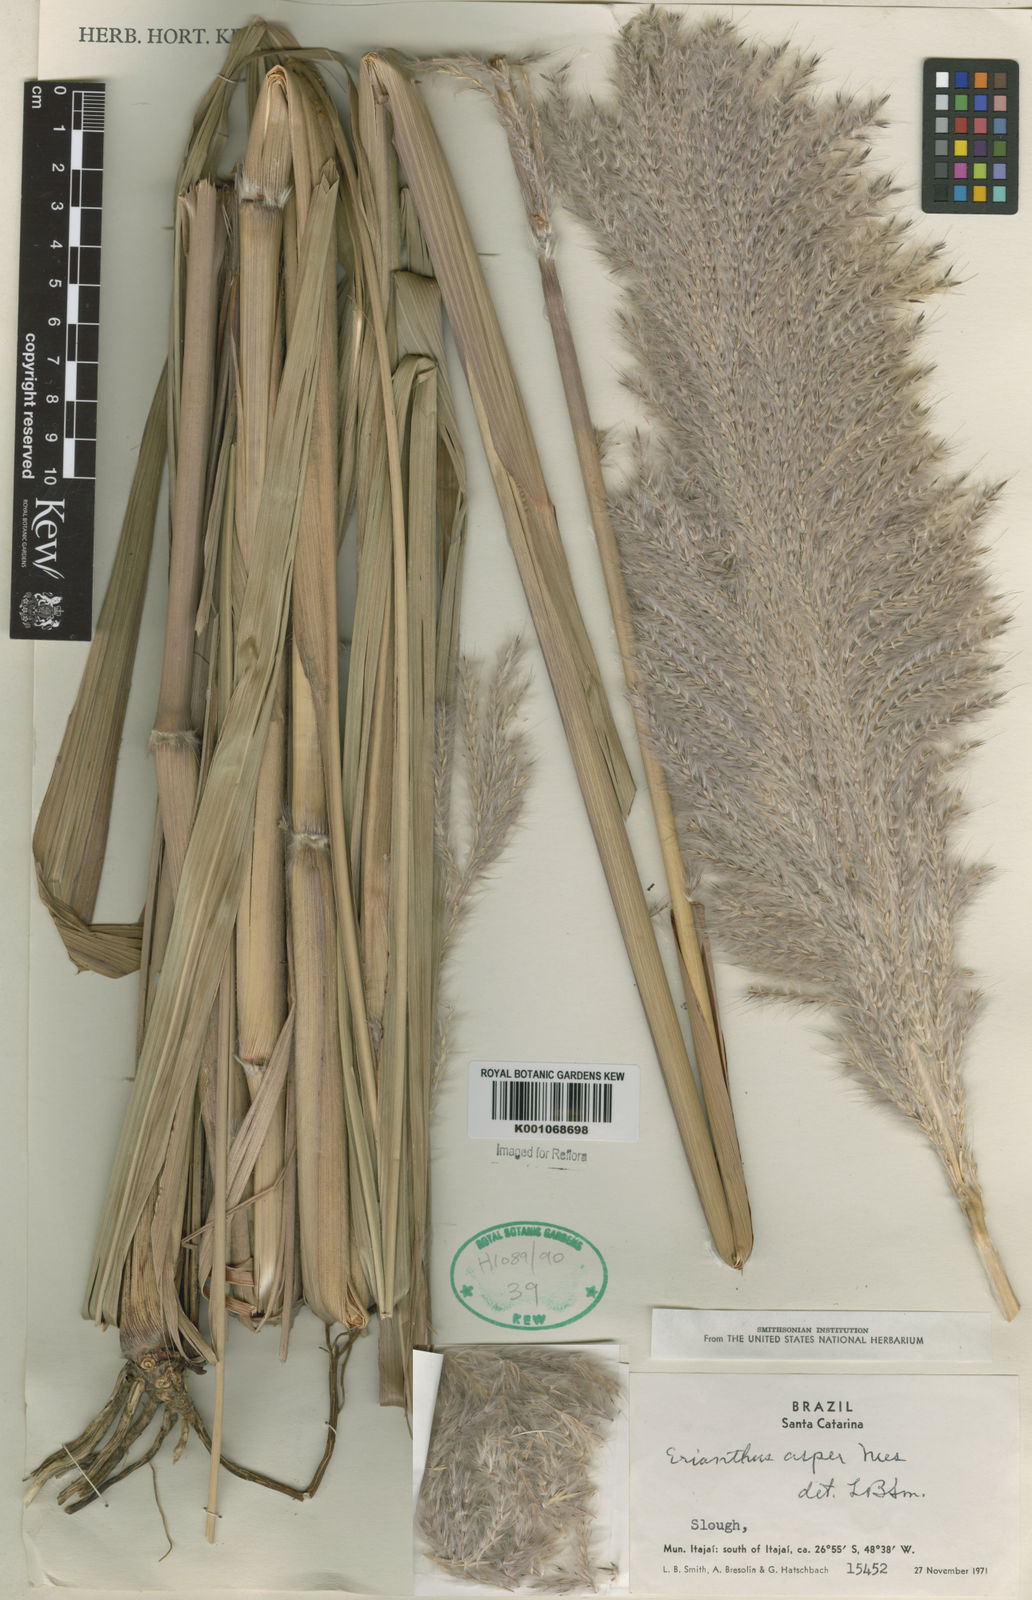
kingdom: Plantae
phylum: Tracheophyta
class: Liliopsida
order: Poales
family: Poaceae
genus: Erianthus
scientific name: Erianthus asper
